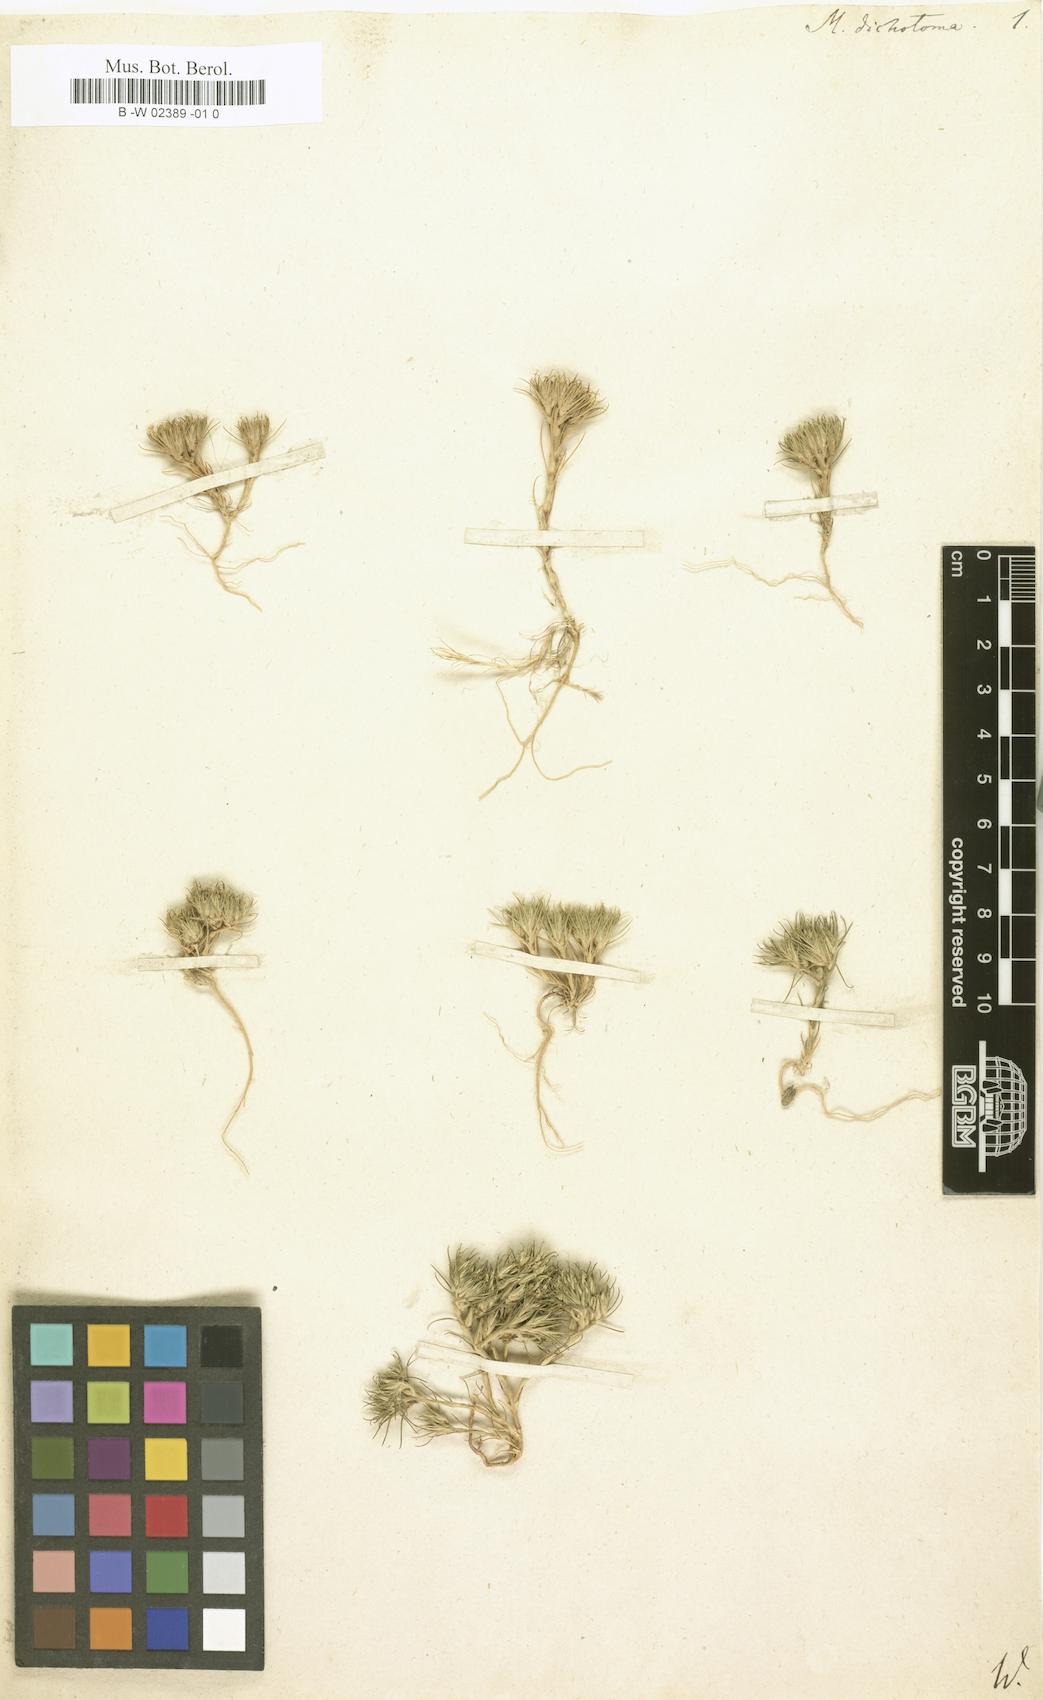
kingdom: Plantae
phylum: Tracheophyta
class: Magnoliopsida
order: Caryophyllales
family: Caryophyllaceae
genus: Minuartia
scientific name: Minuartia dichotoma
